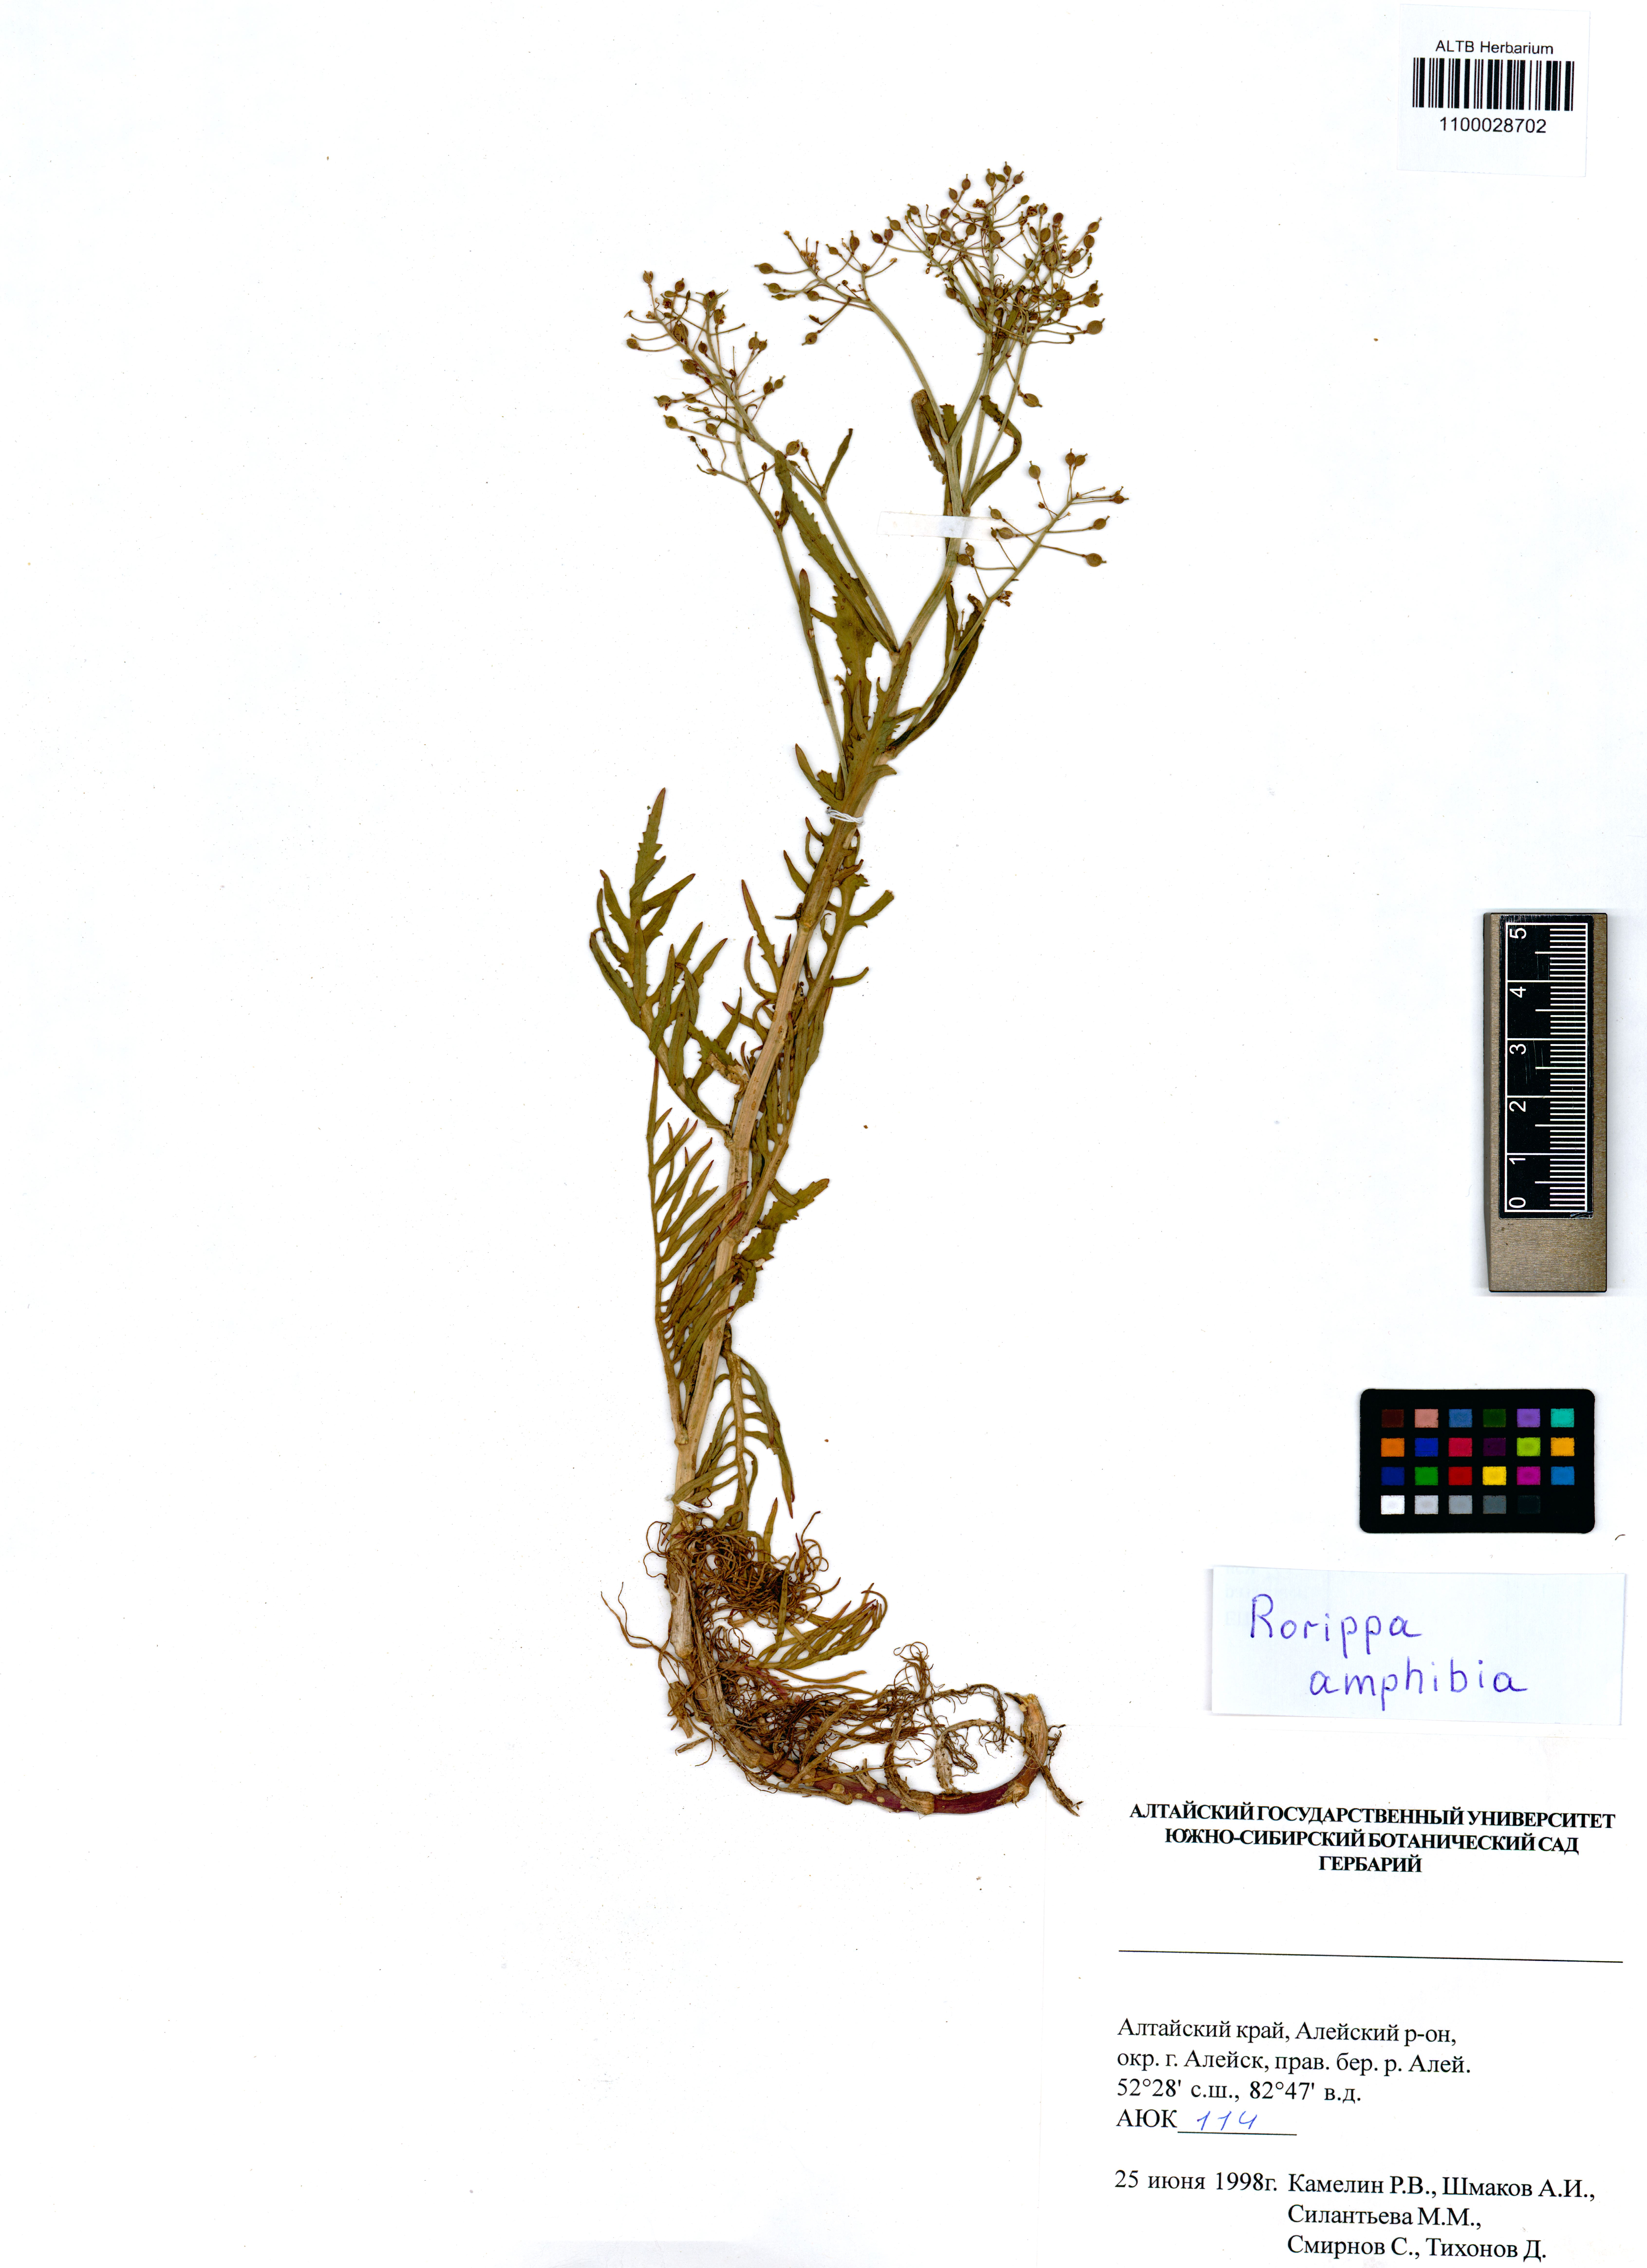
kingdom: Plantae
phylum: Tracheophyta
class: Magnoliopsida
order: Brassicales
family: Brassicaceae
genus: Rorippa
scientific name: Rorippa amphibia
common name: Great yellow-cress
